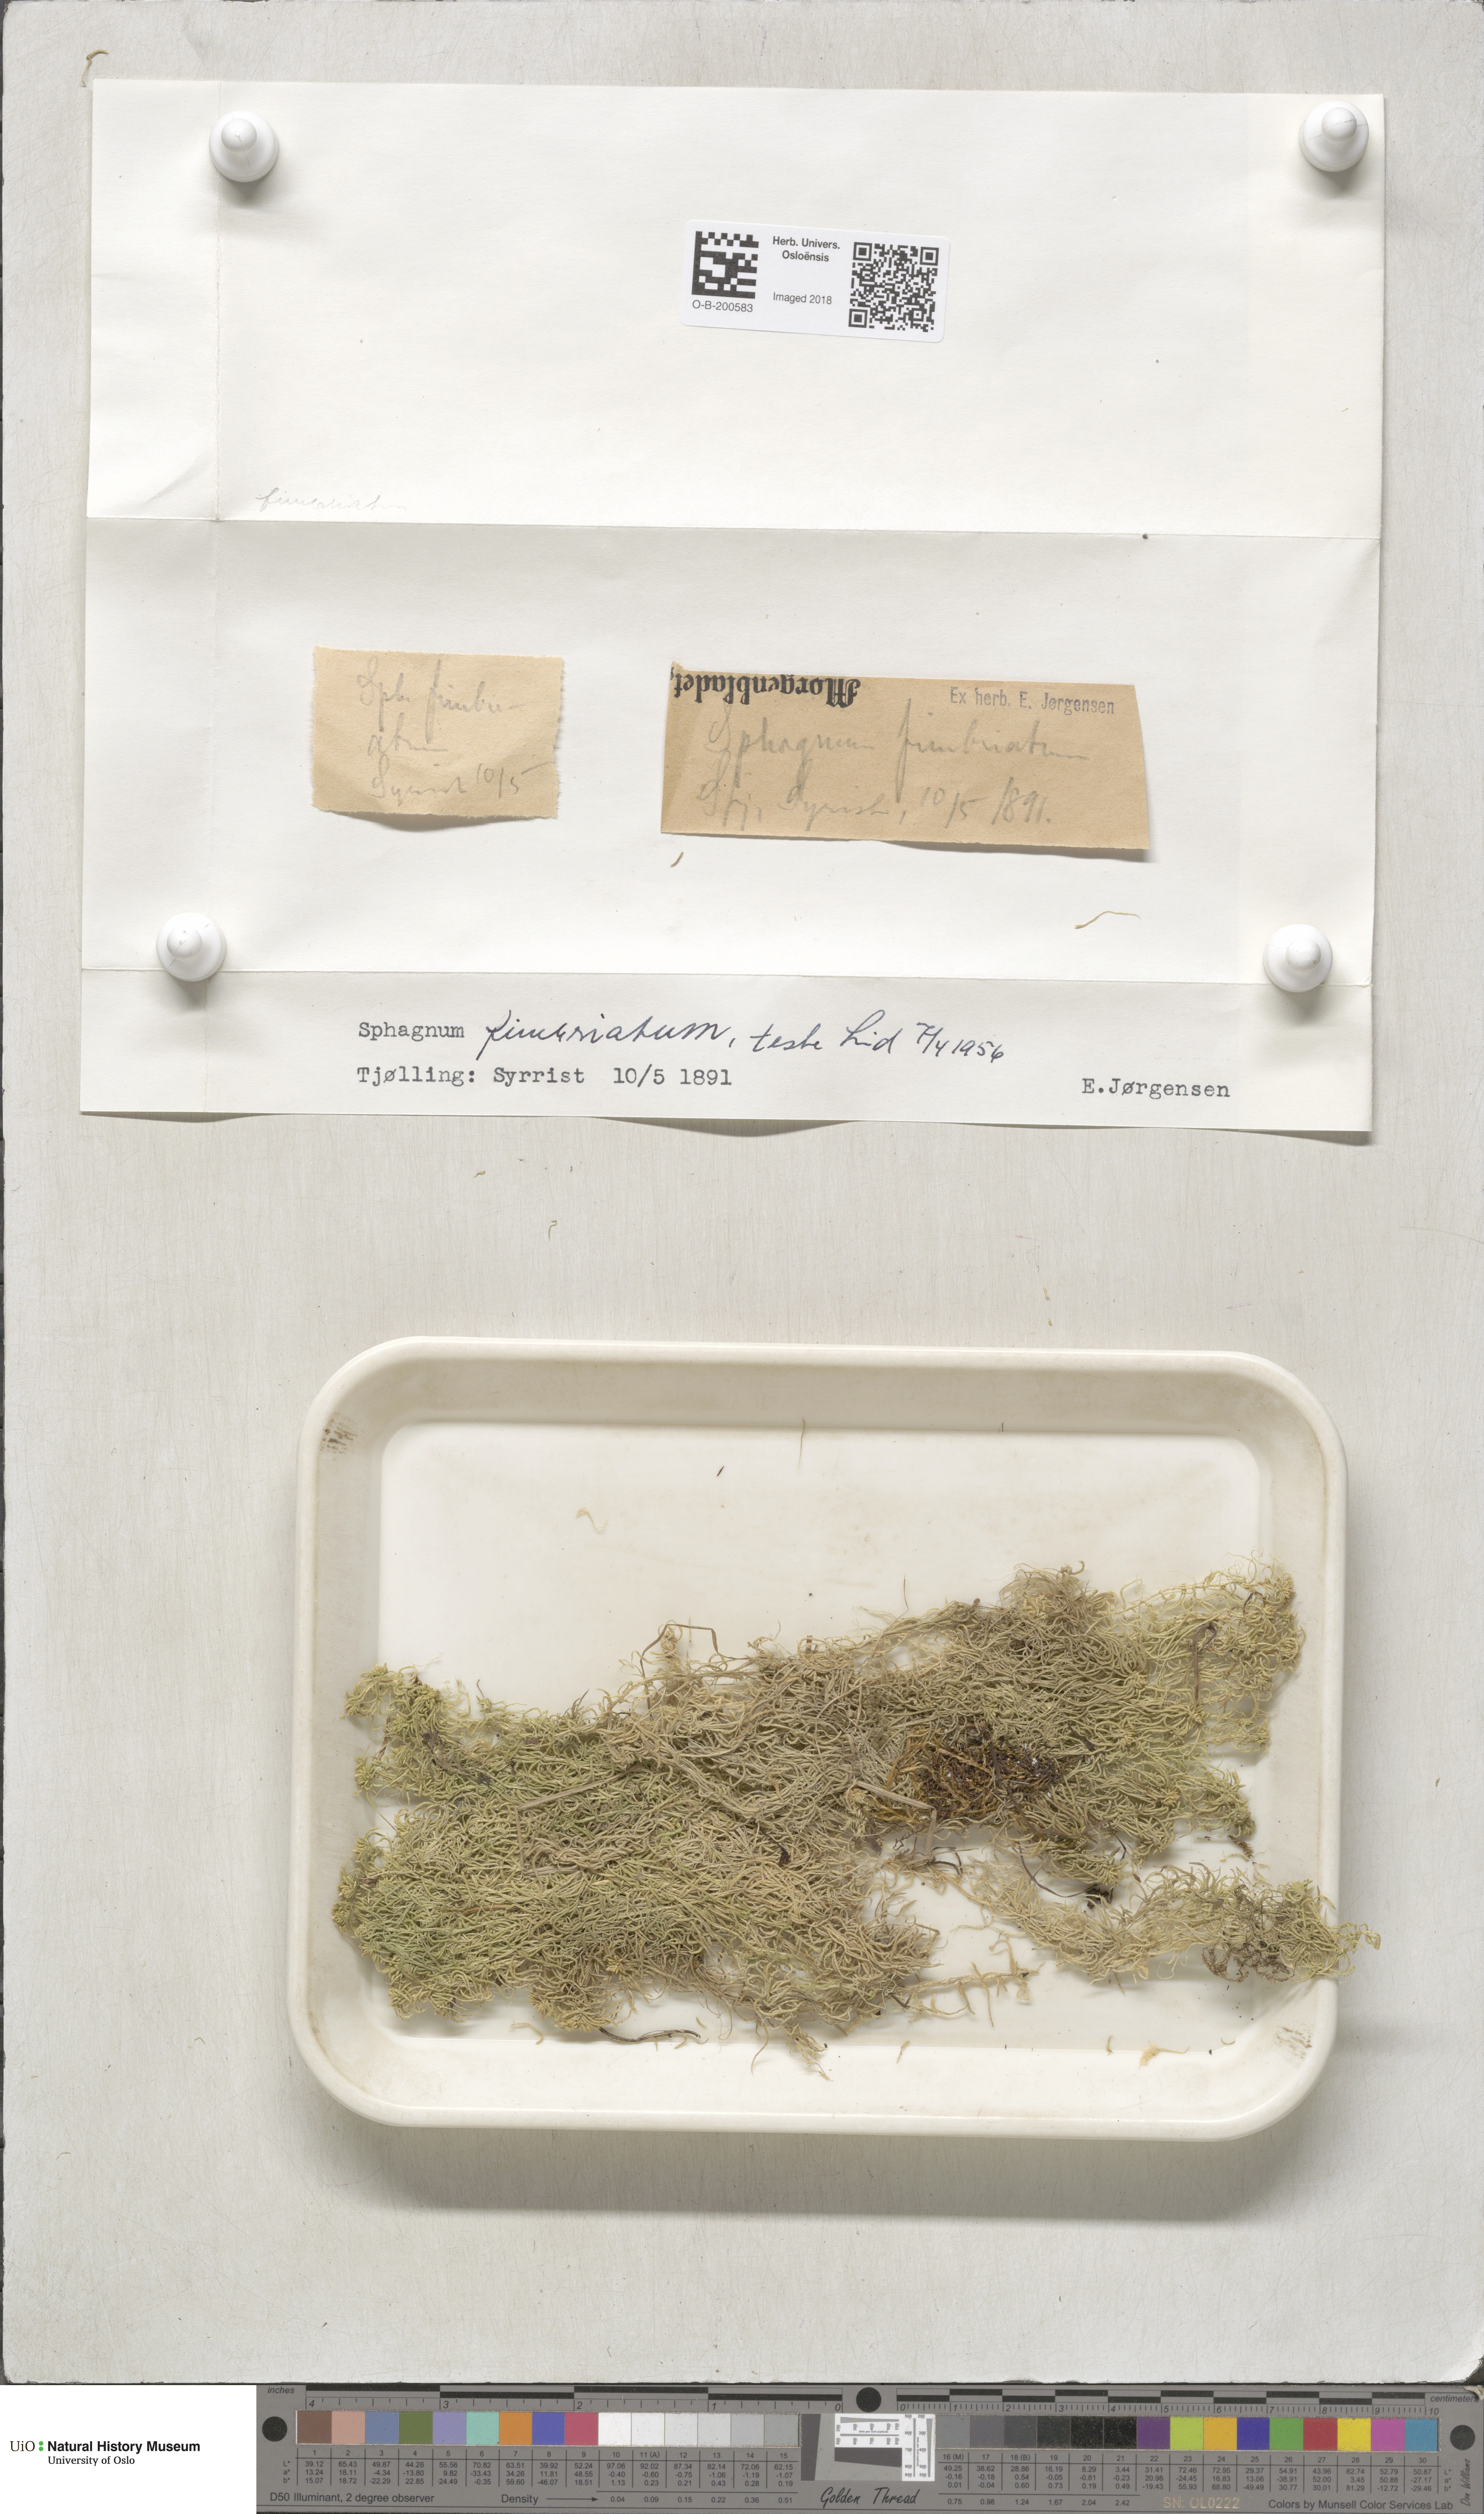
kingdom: Plantae
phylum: Bryophyta
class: Sphagnopsida
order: Sphagnales
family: Sphagnaceae
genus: Sphagnum
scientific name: Sphagnum fimbriatum
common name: Fringed peat moss
